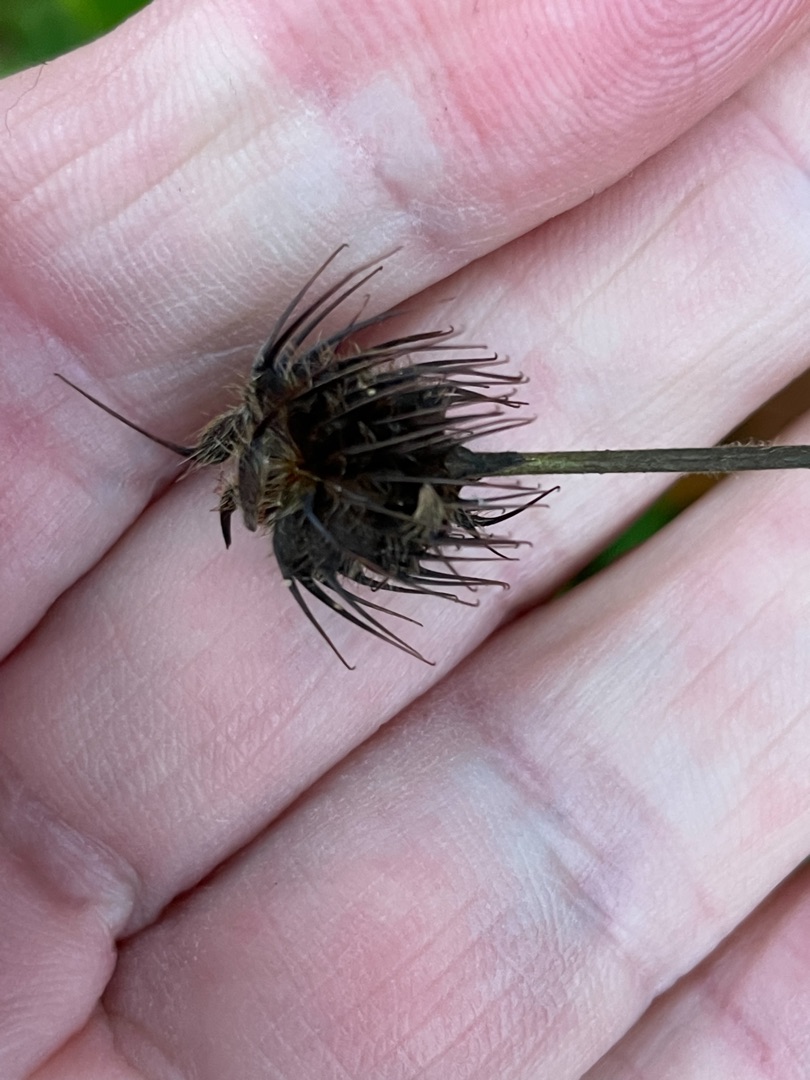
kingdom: Plantae
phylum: Tracheophyta
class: Magnoliopsida
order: Rosales
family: Rosaceae
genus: Geum
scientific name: Geum urbanum
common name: Feber-nellikerod
